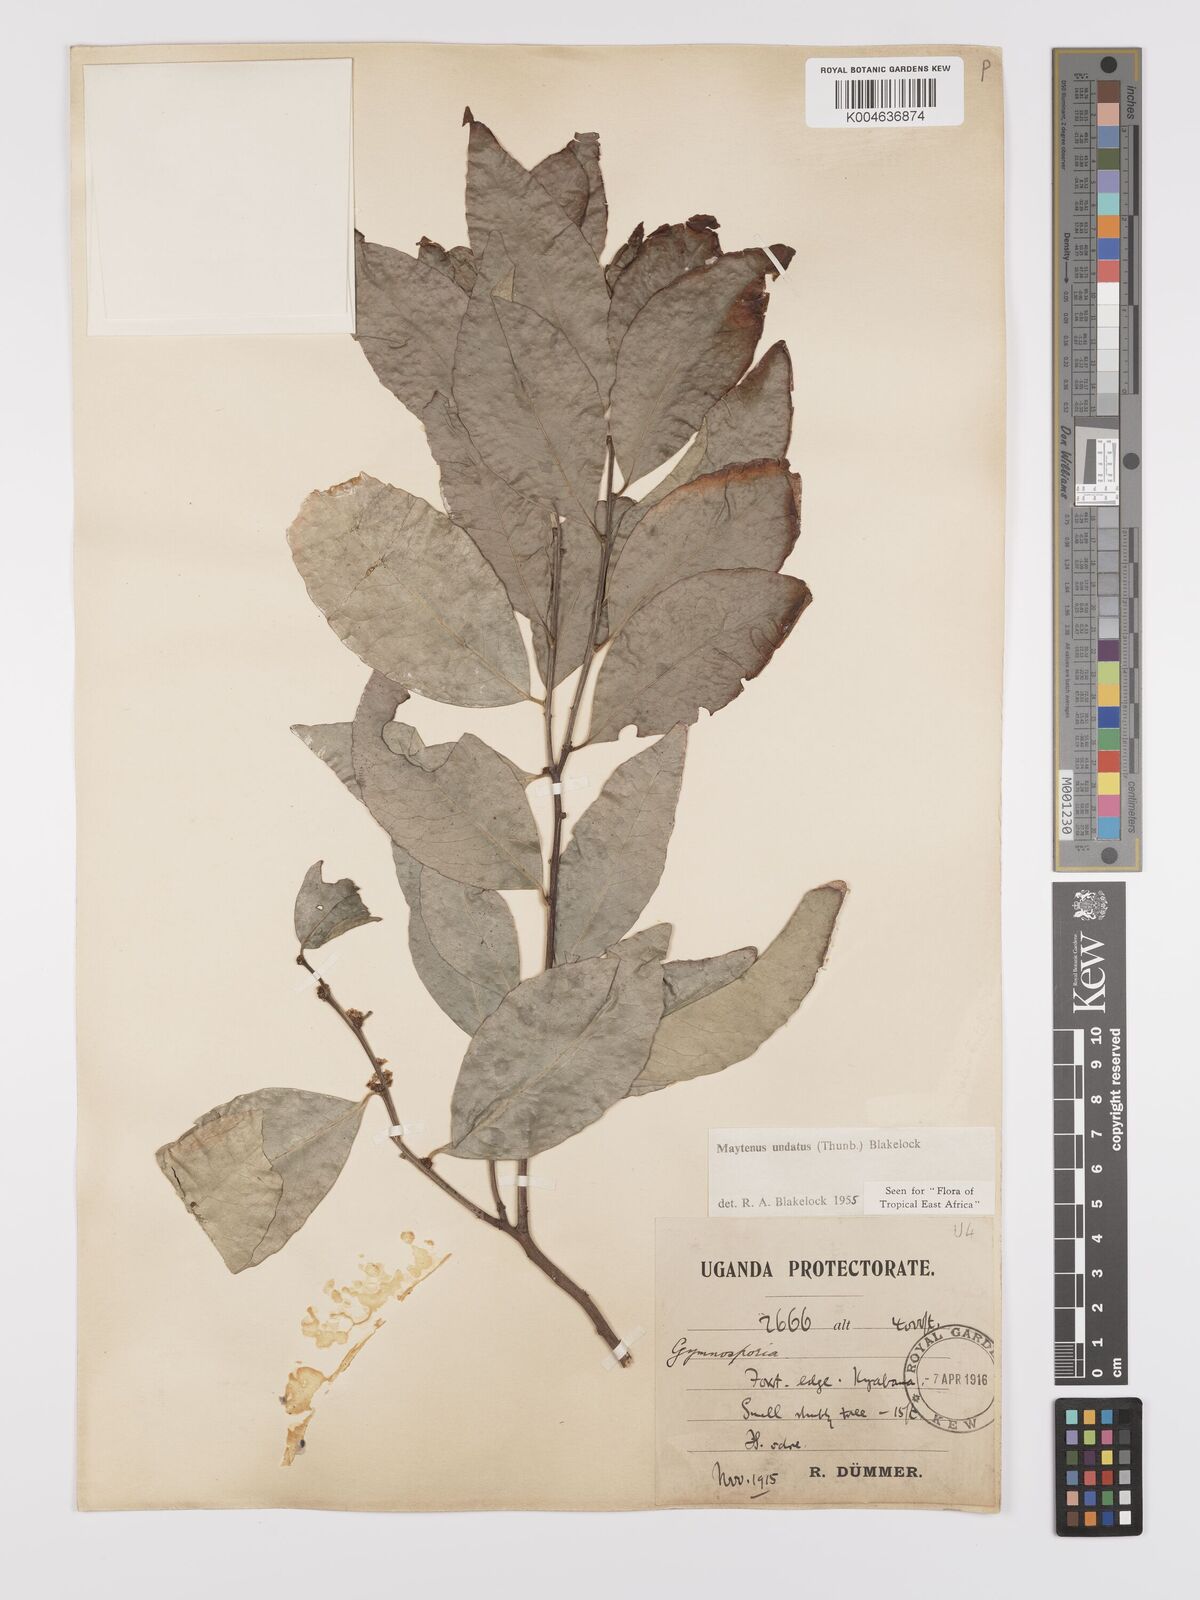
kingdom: Plantae
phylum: Tracheophyta
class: Magnoliopsida
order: Celastrales
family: Celastraceae
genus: Gymnosporia
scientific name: Gymnosporia undata
